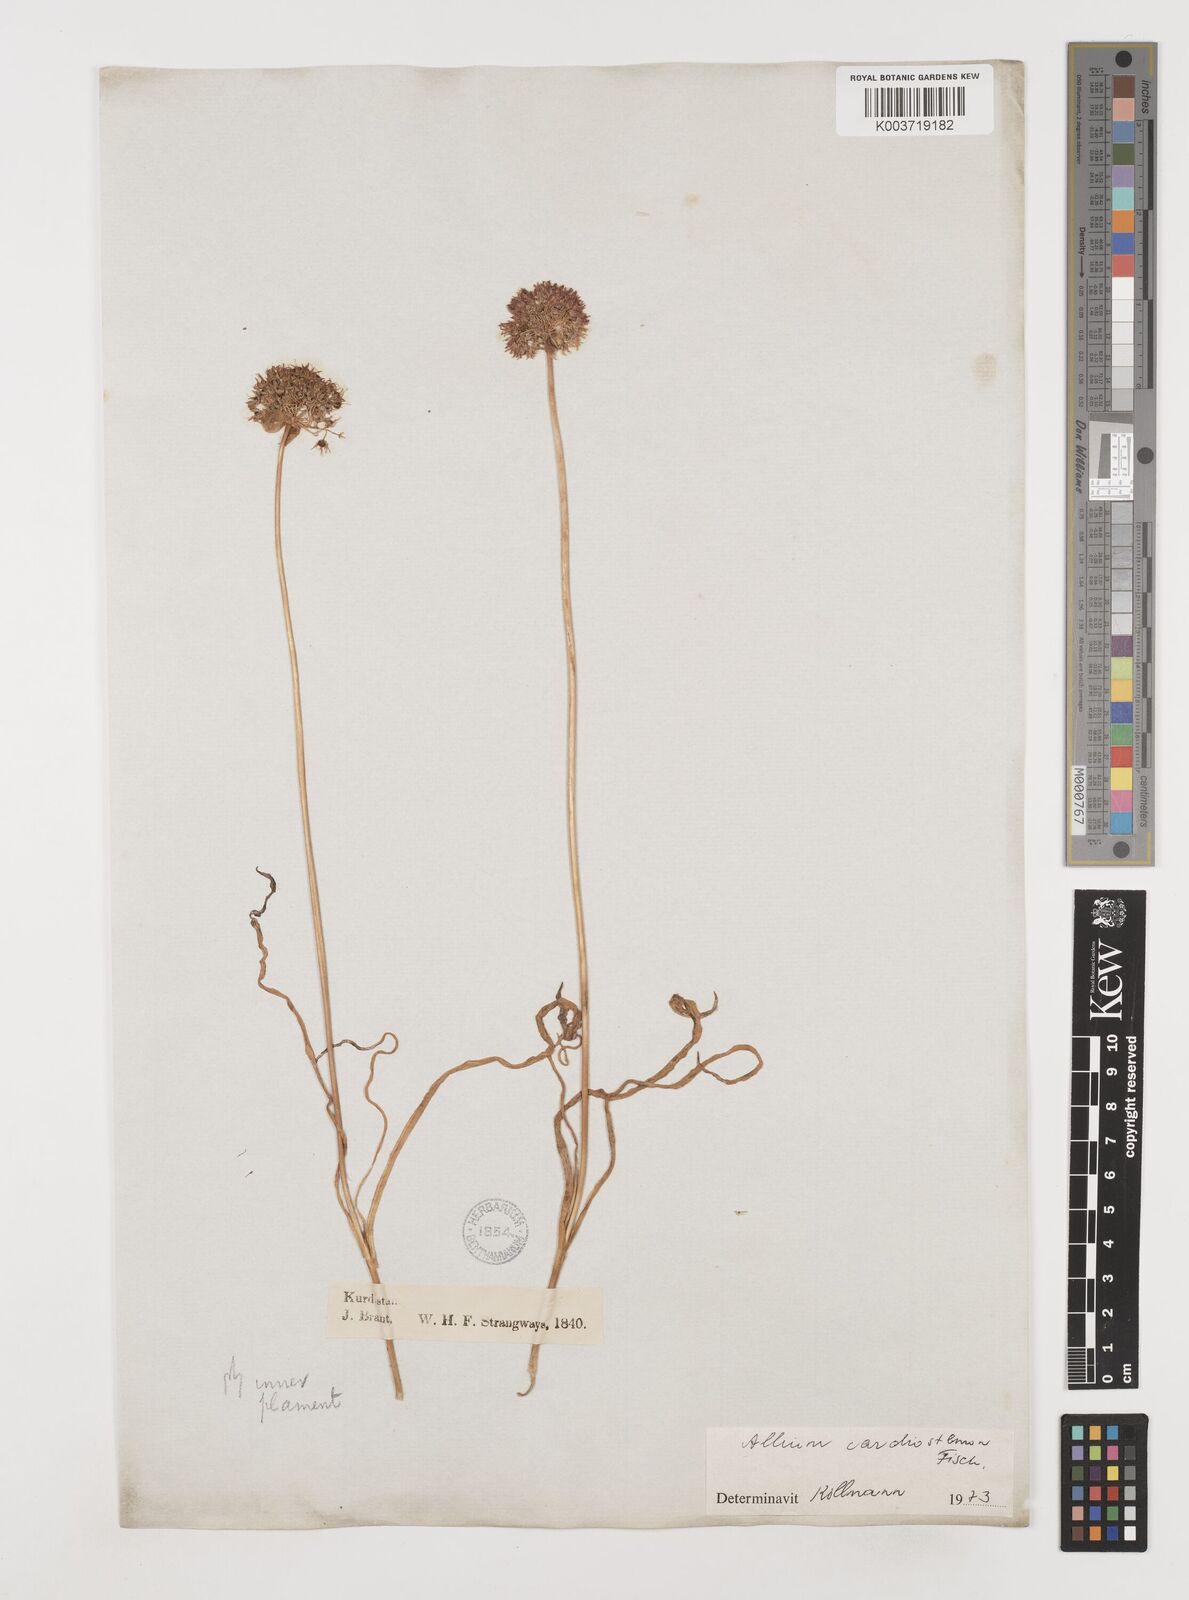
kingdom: Plantae
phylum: Tracheophyta
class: Liliopsida
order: Asparagales
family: Amaryllidaceae
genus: Allium
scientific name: Allium cardiostemon
